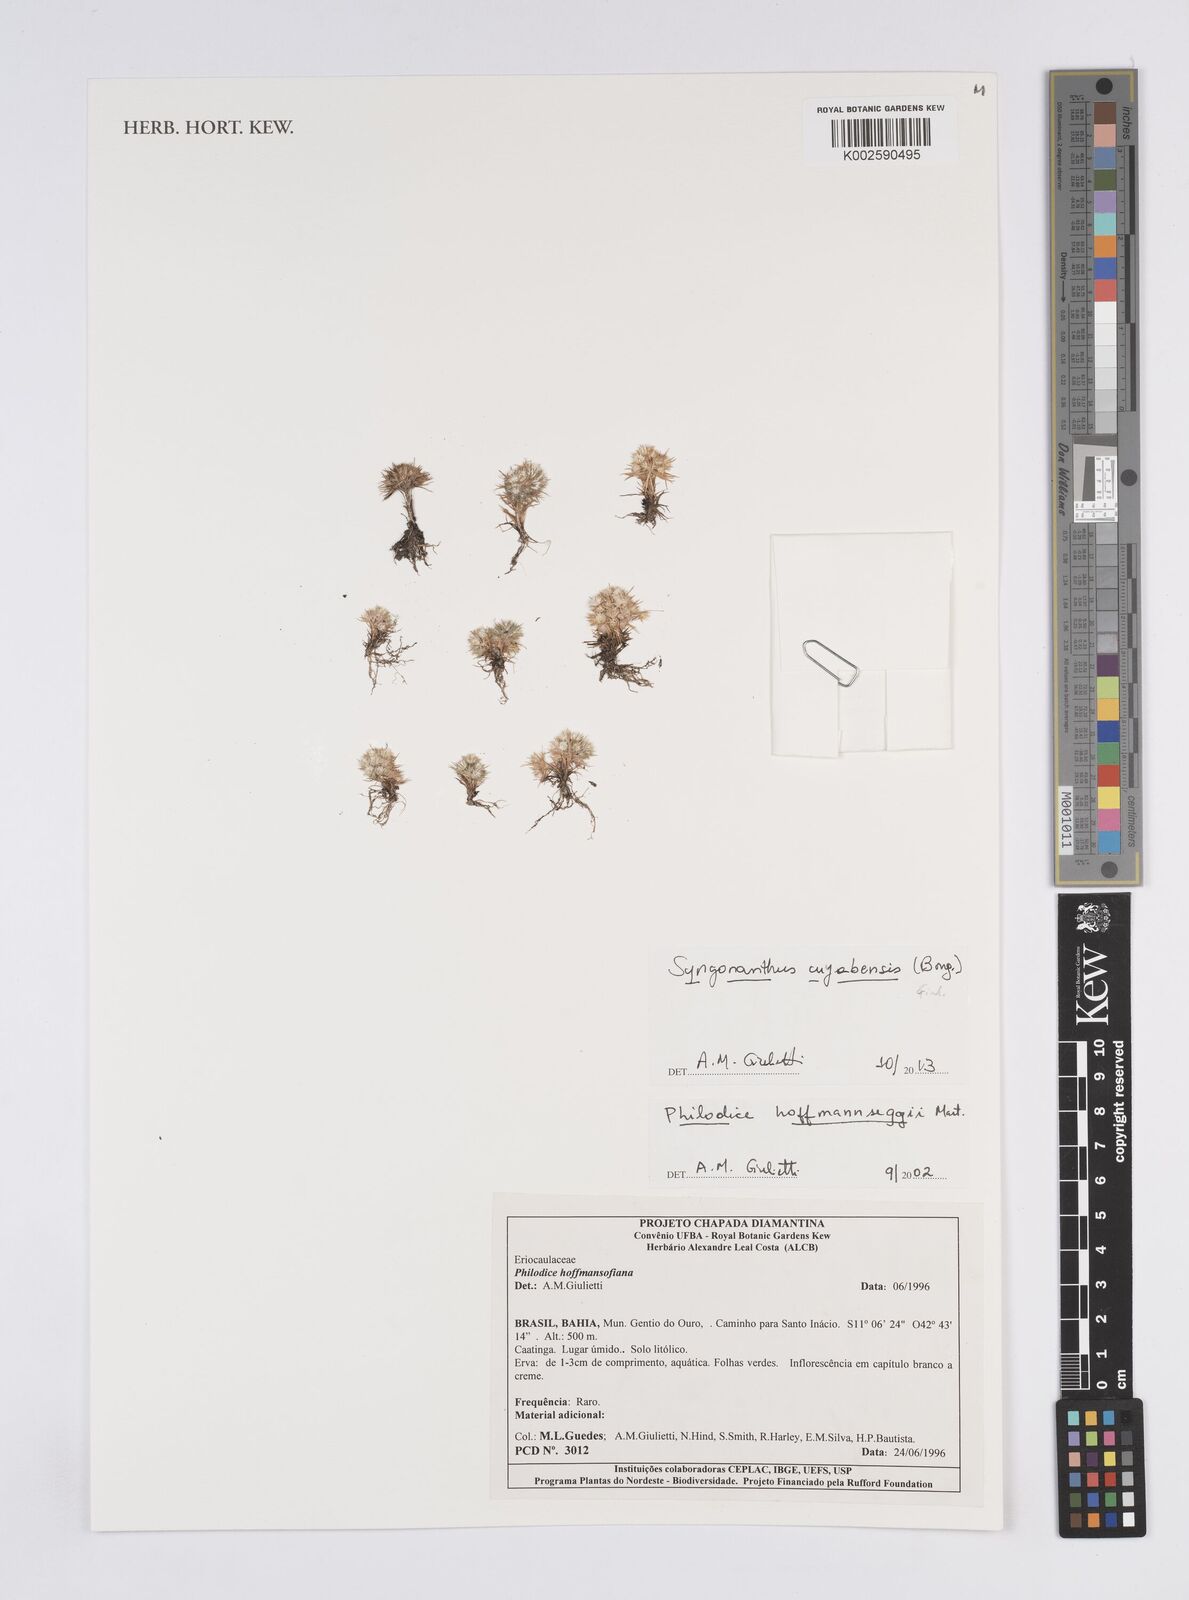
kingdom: Plantae
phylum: Tracheophyta
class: Liliopsida
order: Poales
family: Eriocaulaceae
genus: Syngonanthus
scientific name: Syngonanthus cuyabensis
